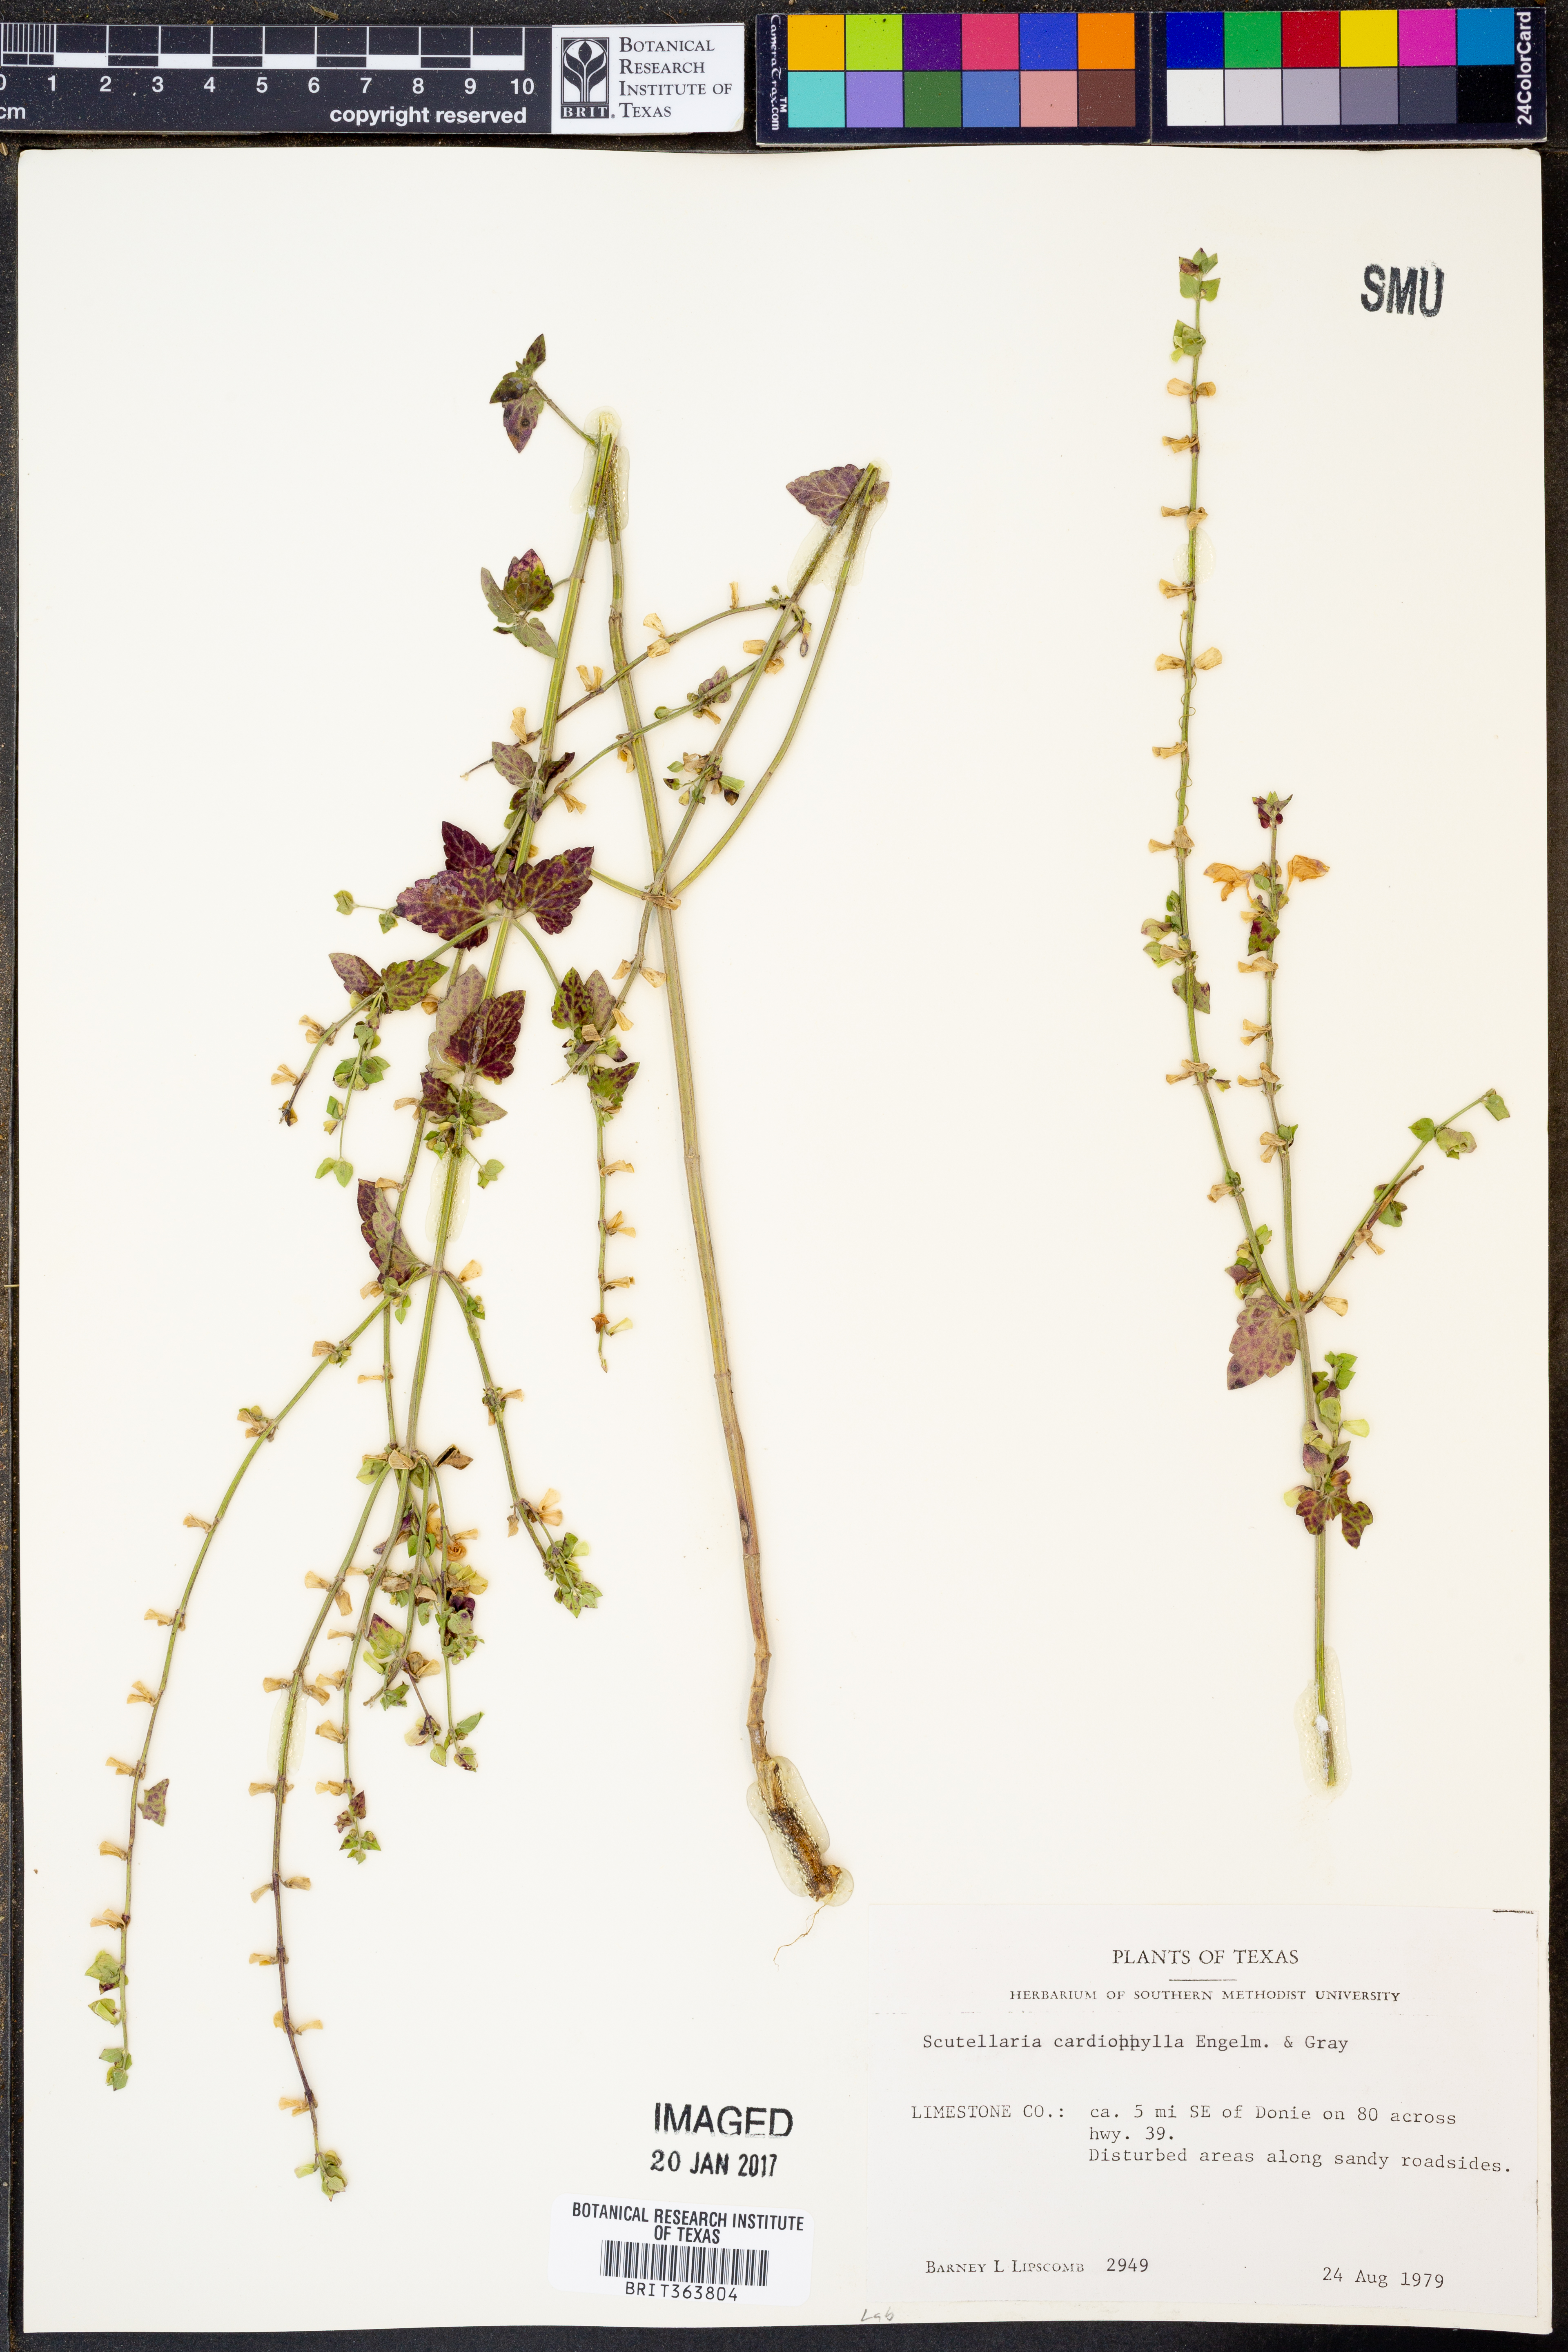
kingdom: Plantae
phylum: Tracheophyta
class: Magnoliopsida
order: Lamiales
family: Lamiaceae
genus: Scutellaria
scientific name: Scutellaria cardiophylla
